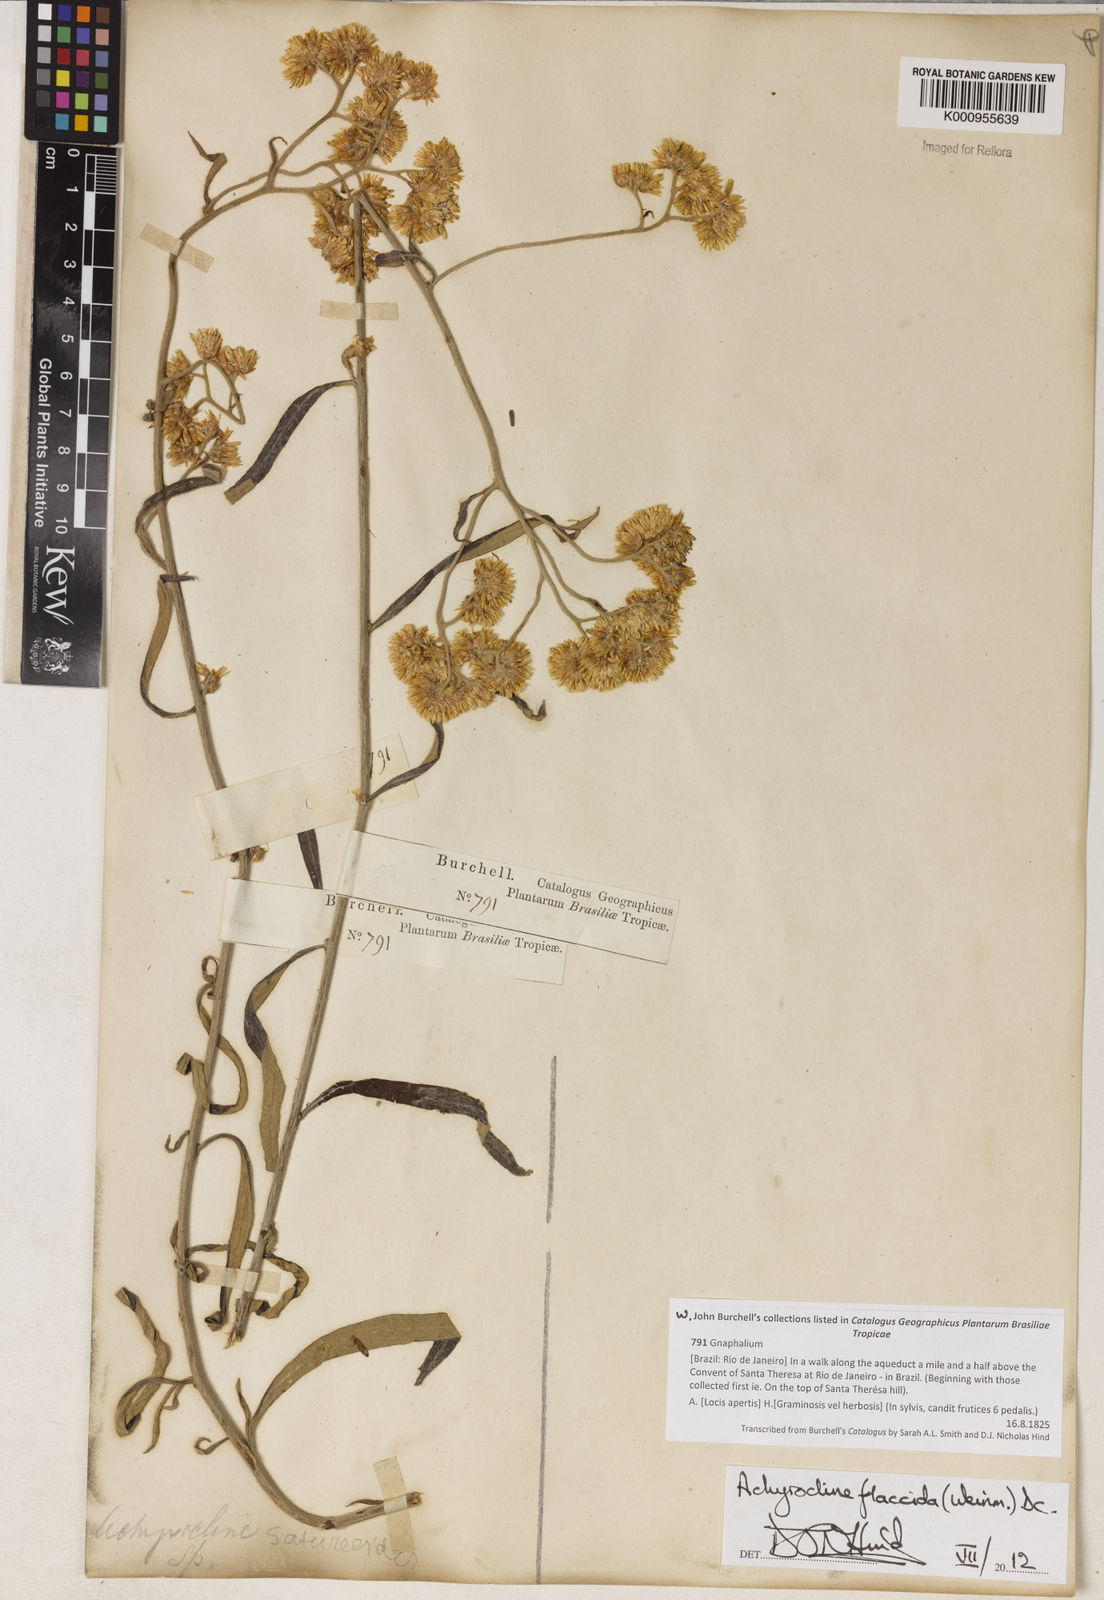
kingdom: Plantae
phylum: Tracheophyta
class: Magnoliopsida
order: Asterales
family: Asteraceae
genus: Achyrocline
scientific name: Achyrocline flaccida
